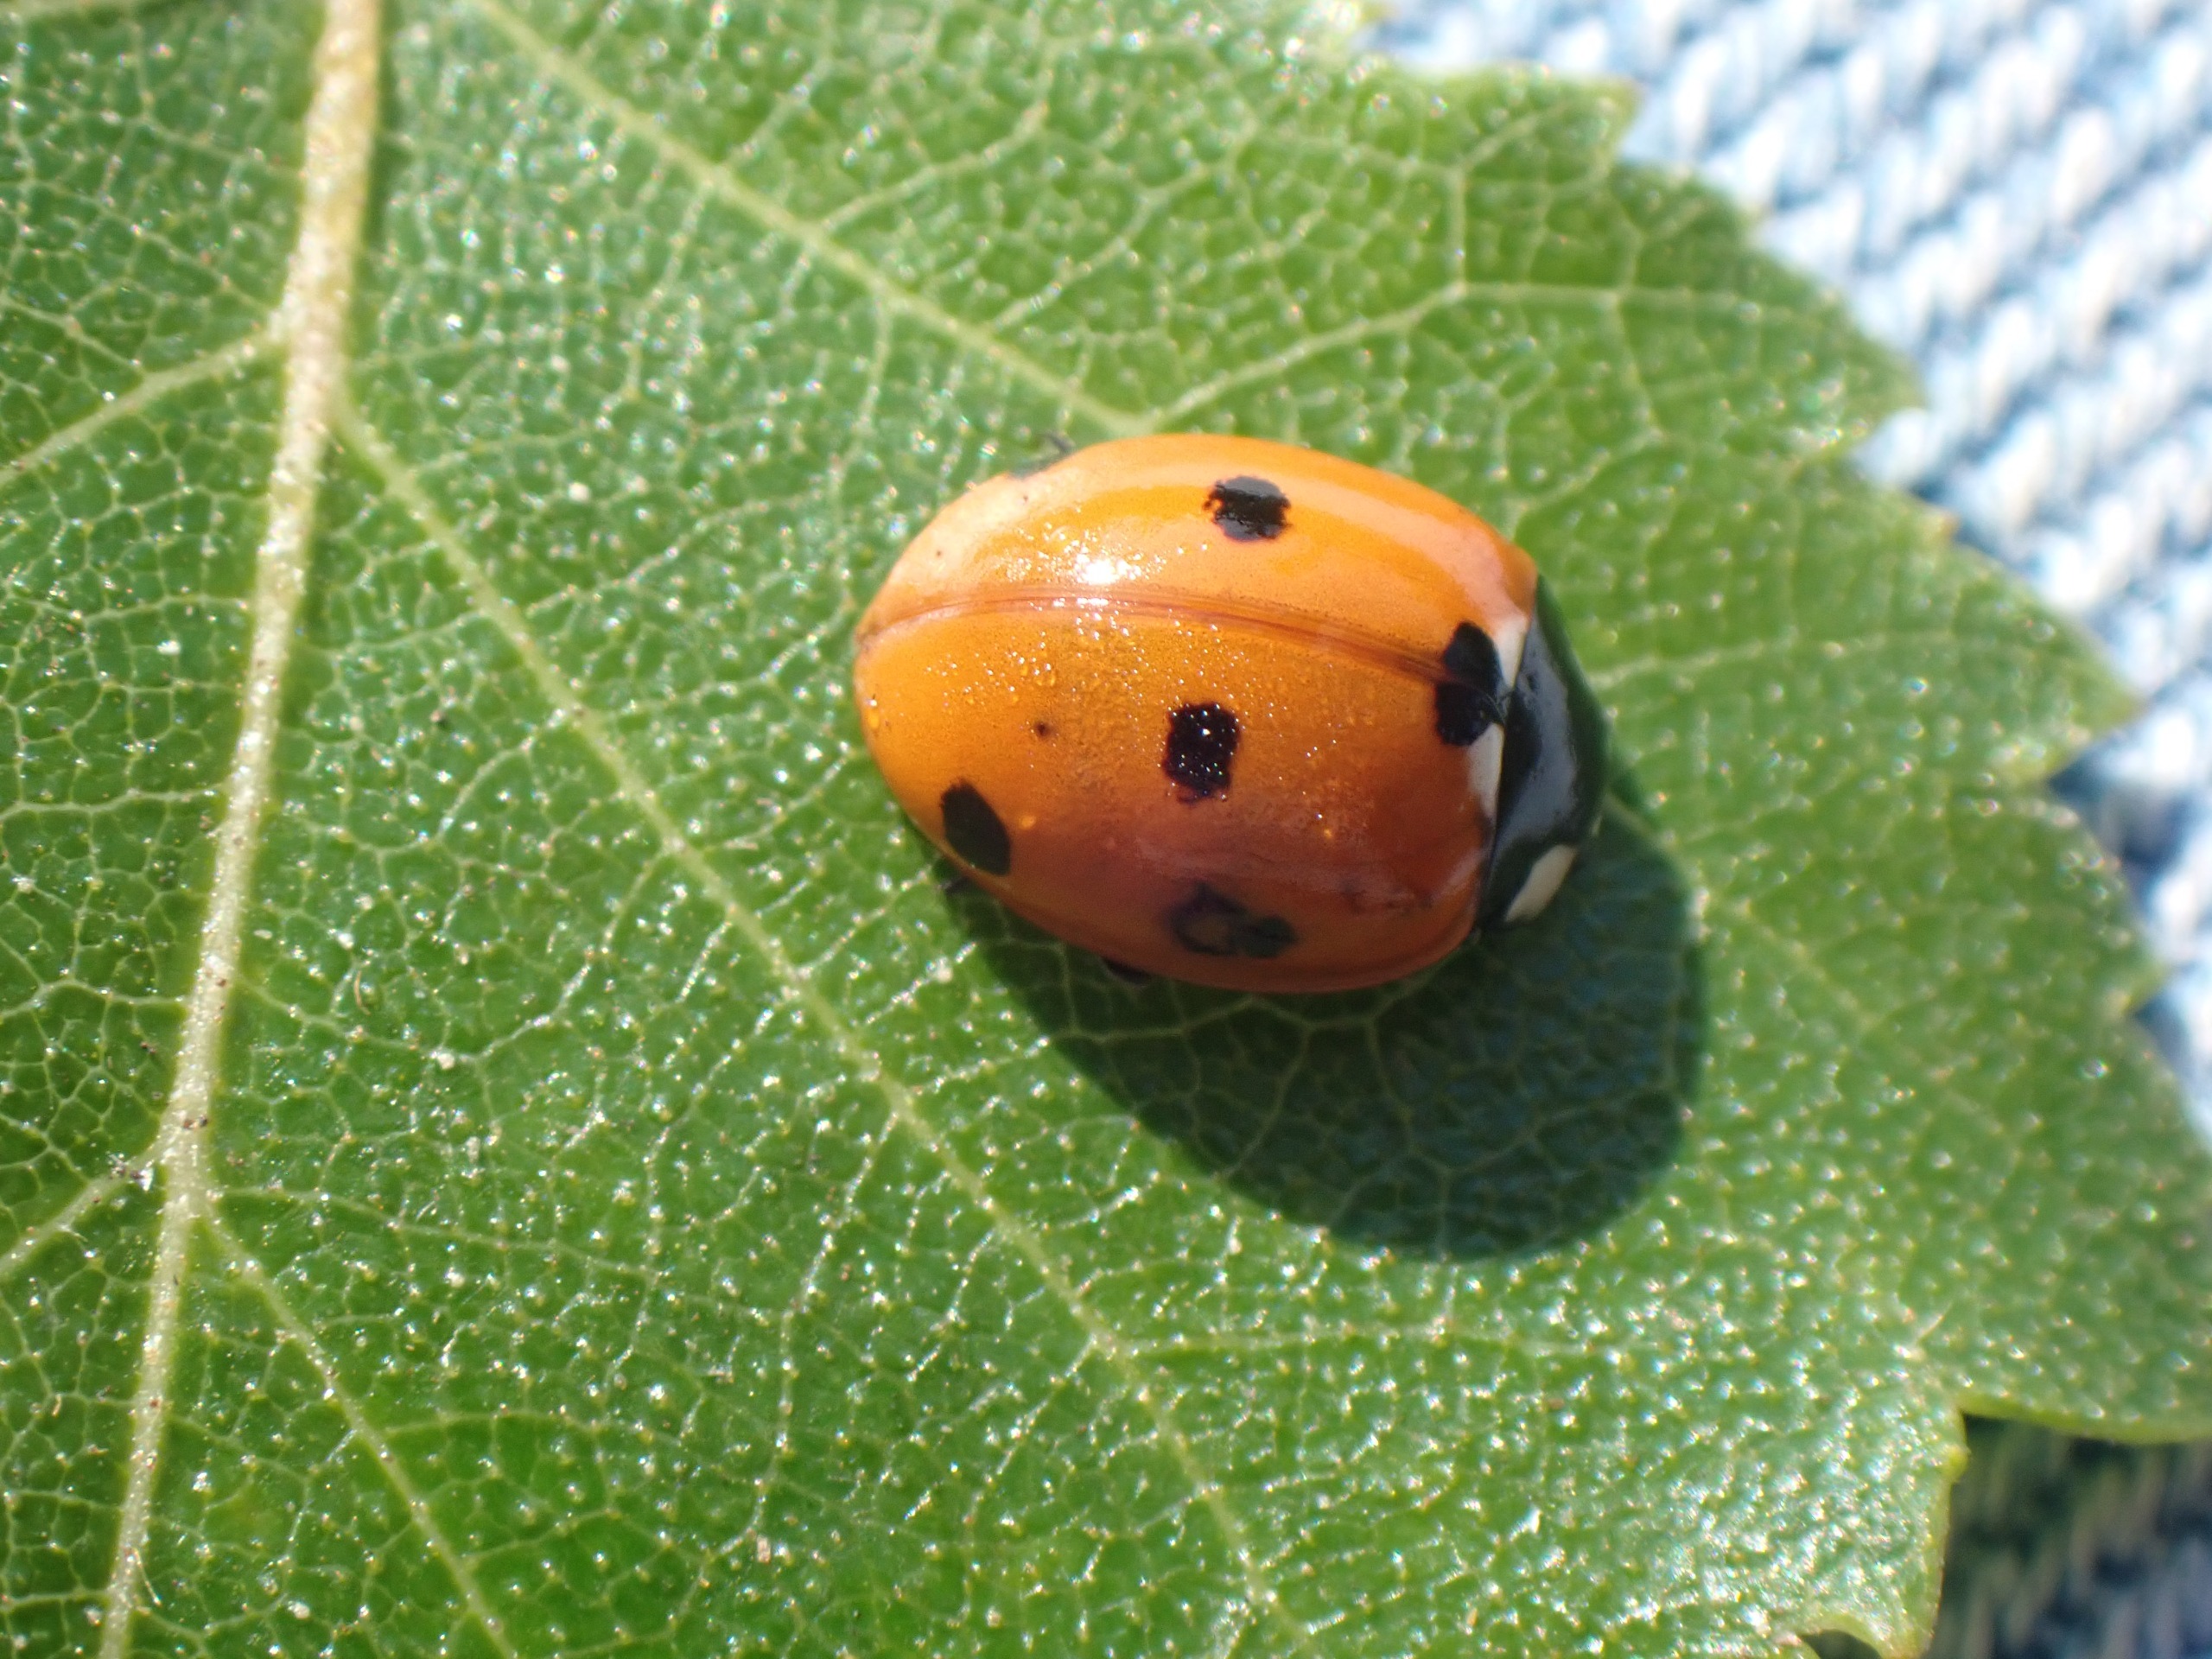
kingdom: Animalia
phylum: Arthropoda
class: Insecta
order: Coleoptera
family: Coccinellidae
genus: Coccinella
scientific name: Coccinella septempunctata
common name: Syvplettet mariehøne
